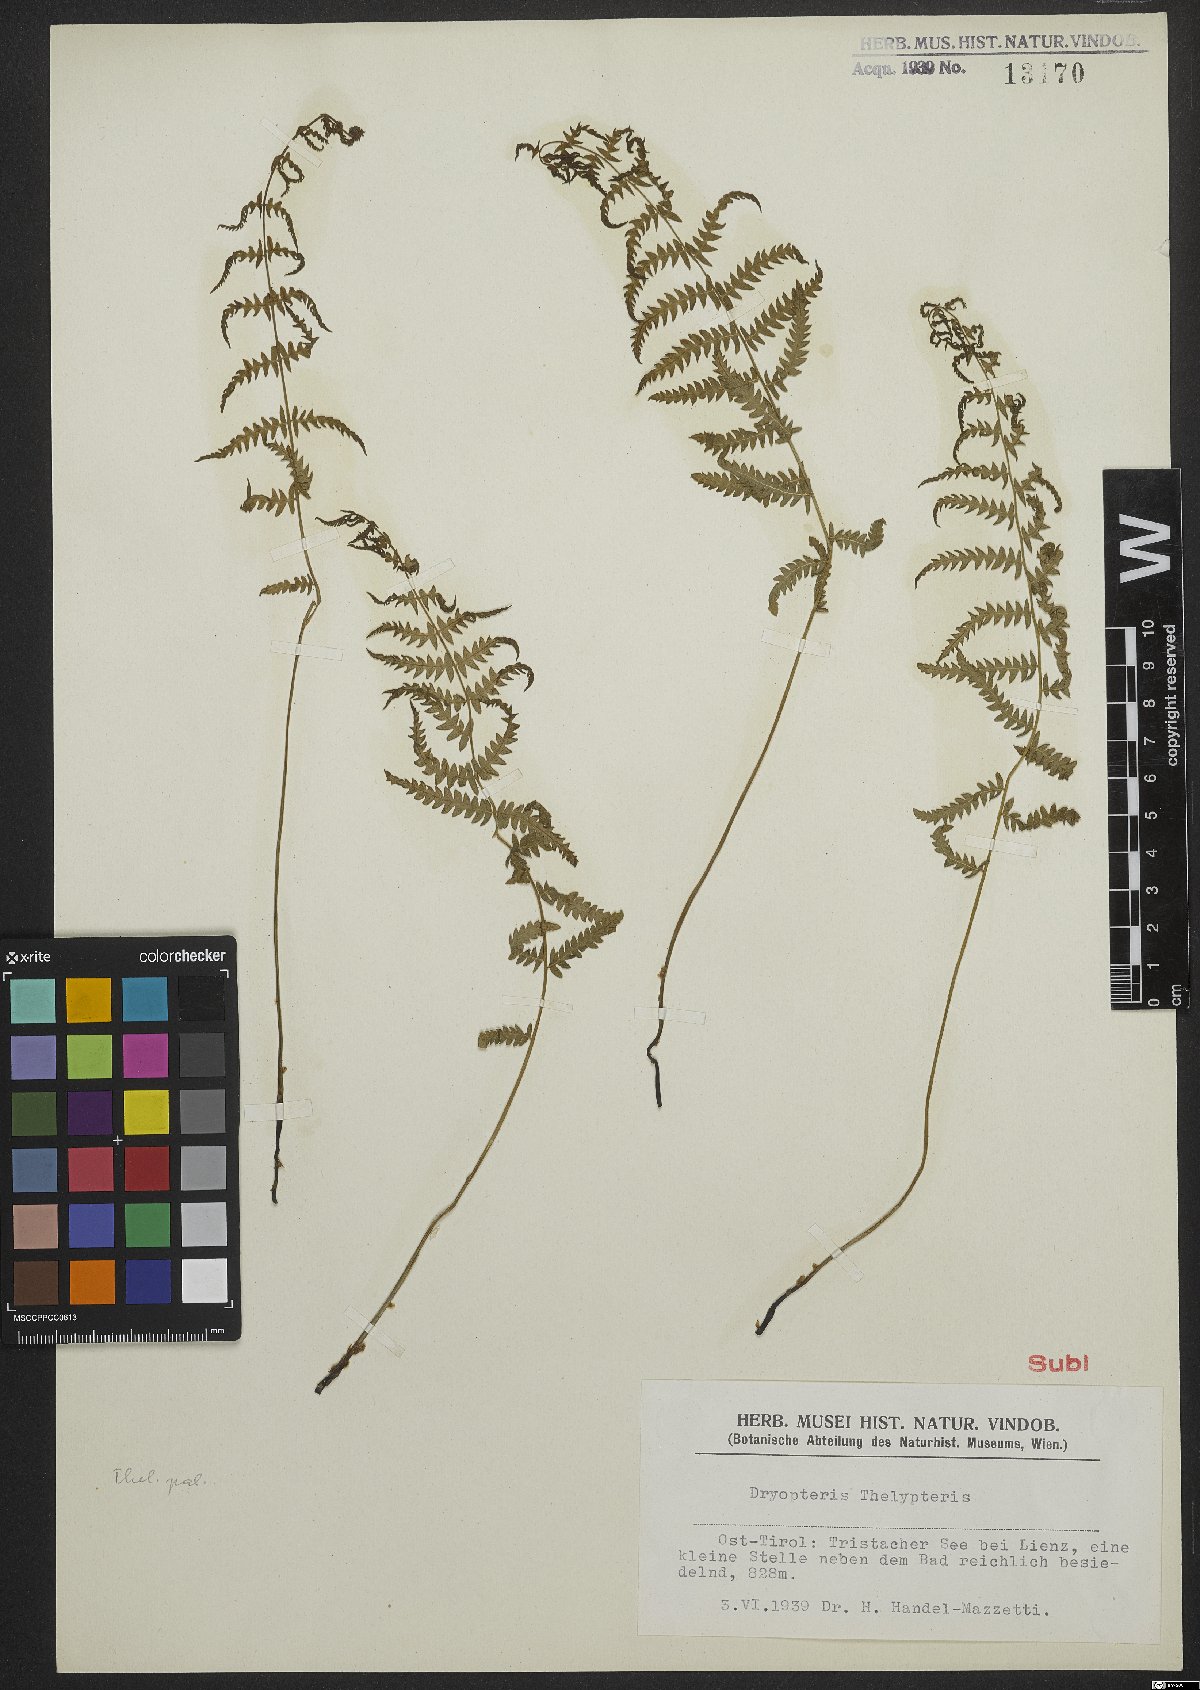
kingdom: Plantae
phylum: Tracheophyta
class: Polypodiopsida
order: Polypodiales
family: Thelypteridaceae
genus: Thelypteris
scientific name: Thelypteris palustris
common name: Marsh fern
